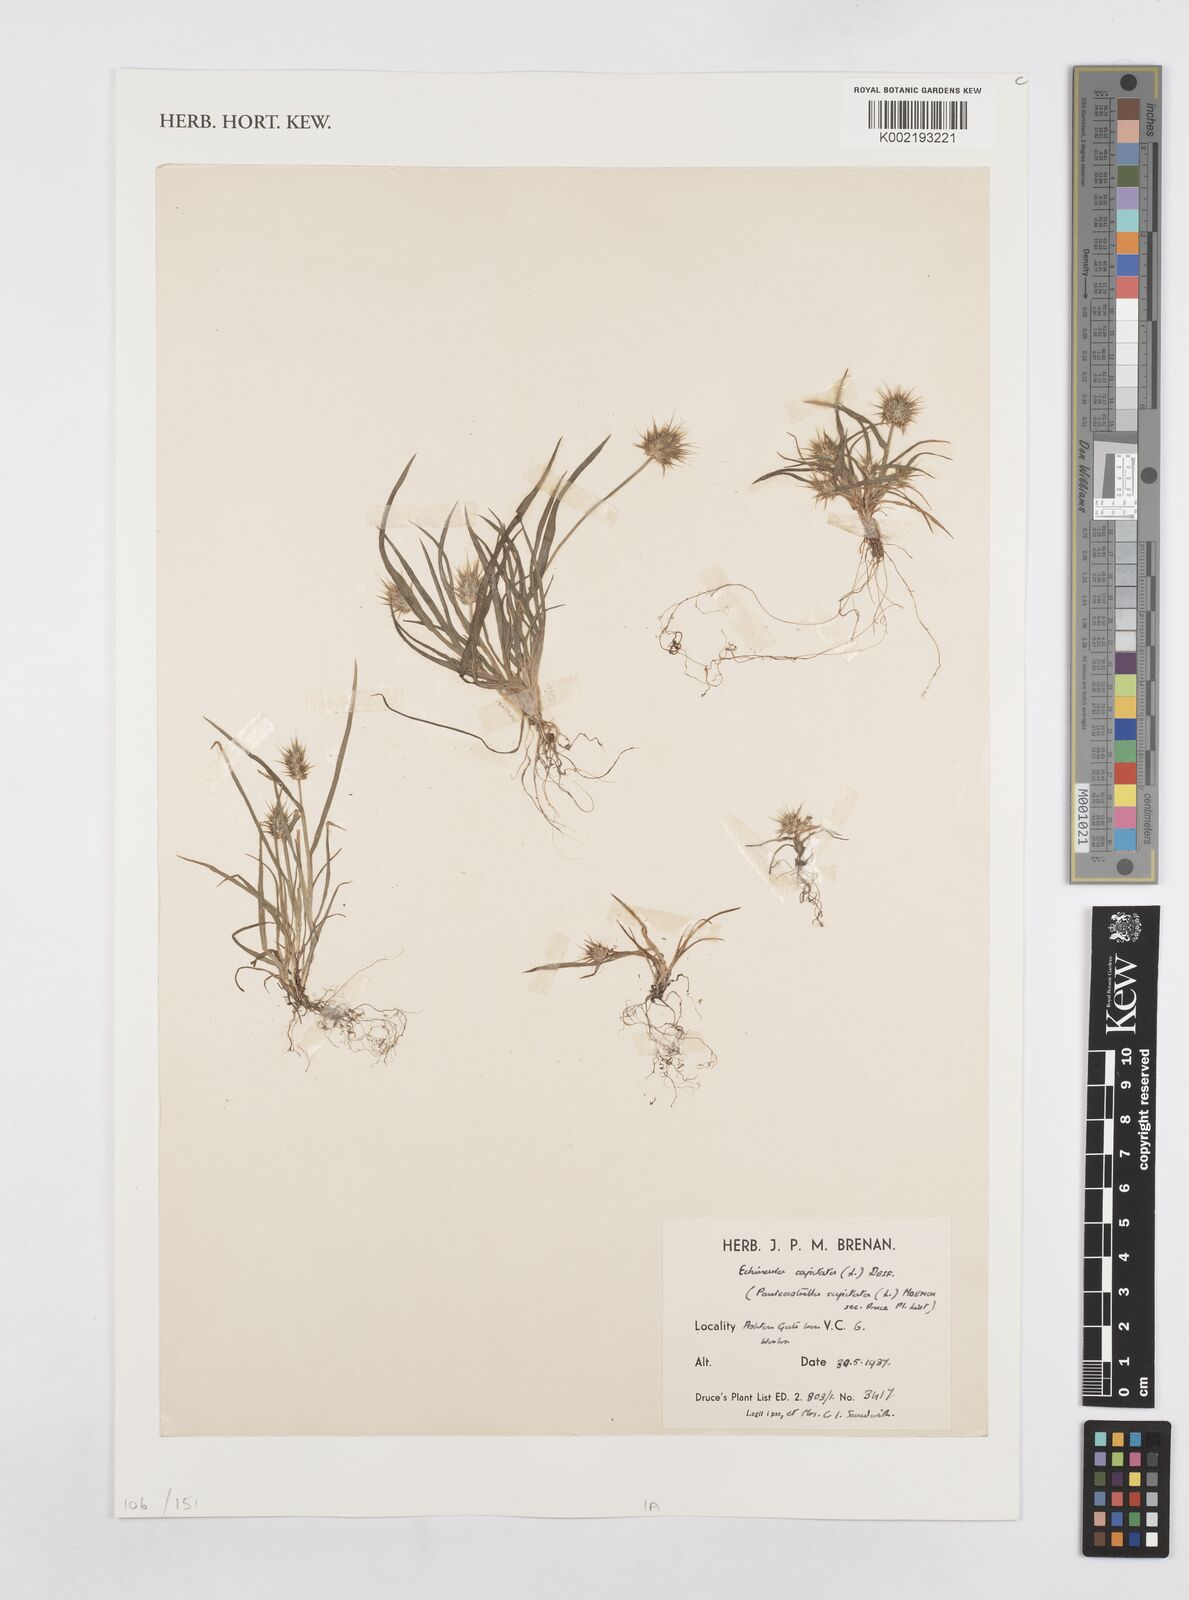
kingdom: Plantae
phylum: Tracheophyta
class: Liliopsida
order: Poales
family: Poaceae
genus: Echinaria
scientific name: Echinaria capitata
